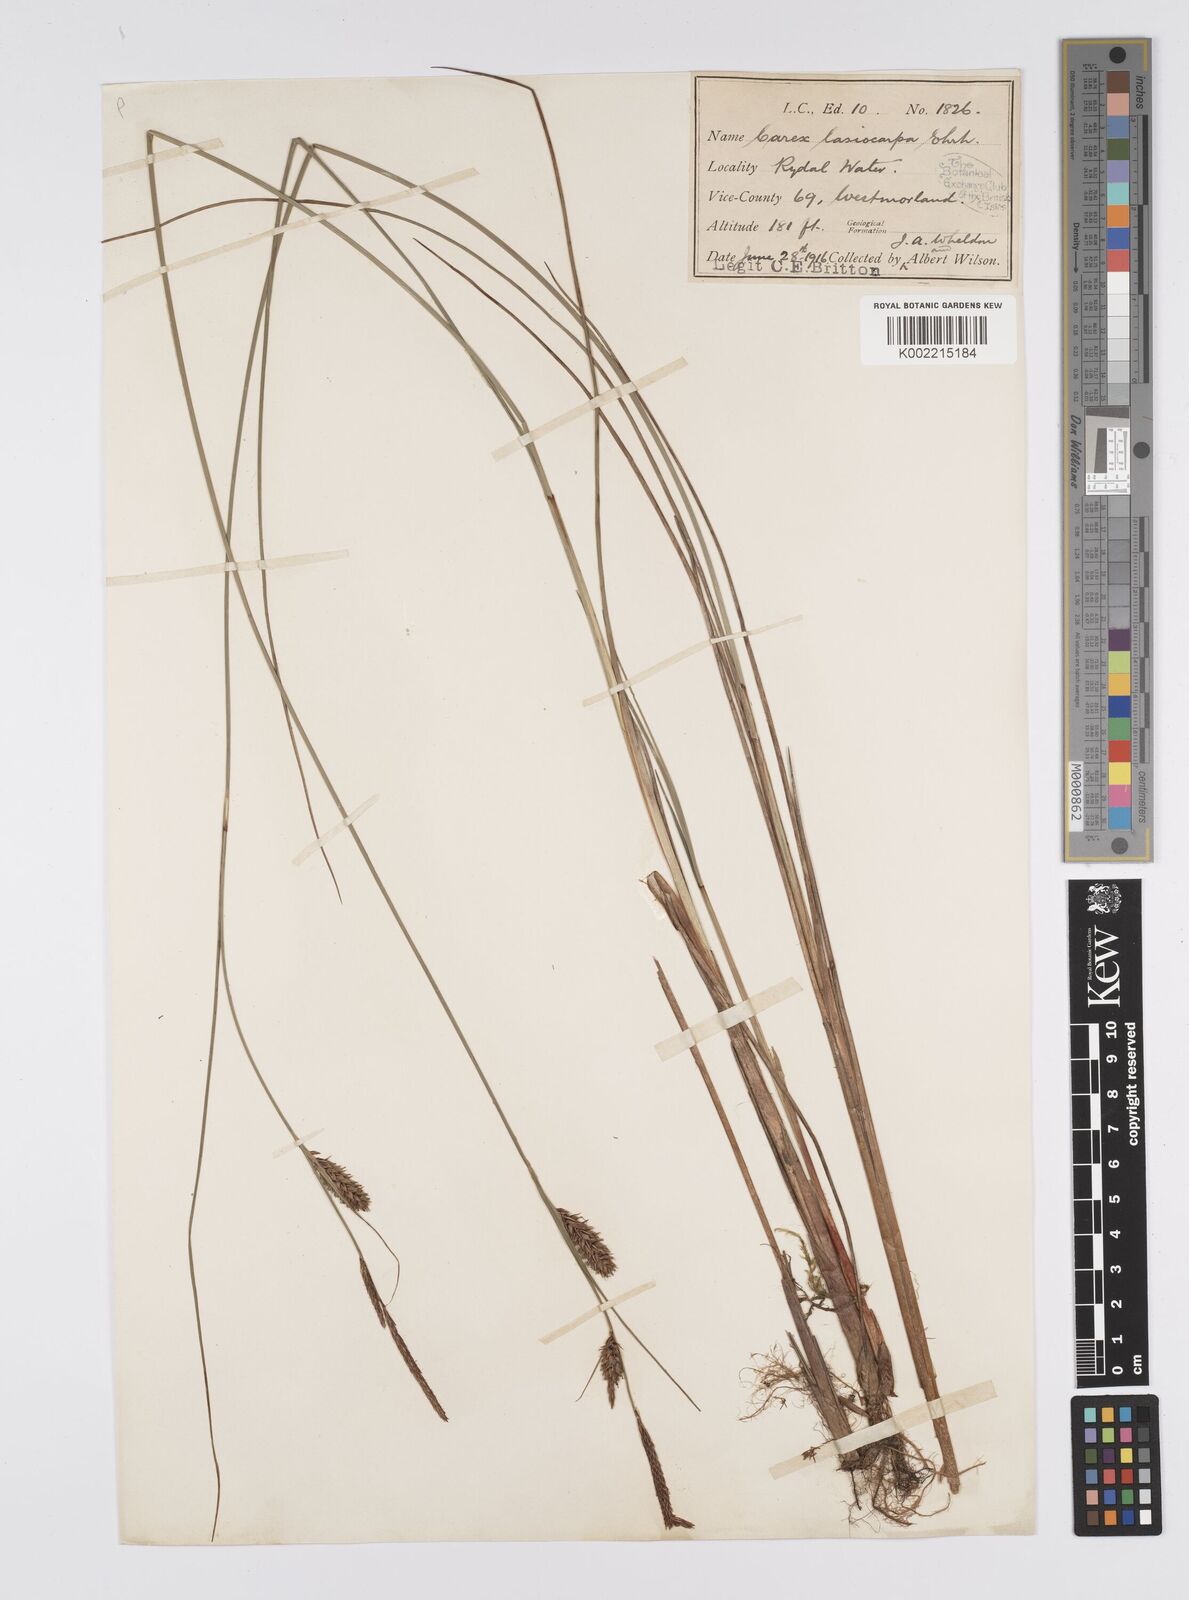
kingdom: Plantae
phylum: Tracheophyta
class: Liliopsida
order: Poales
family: Cyperaceae
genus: Carex
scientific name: Carex lasiocarpa
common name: Slender sedge
